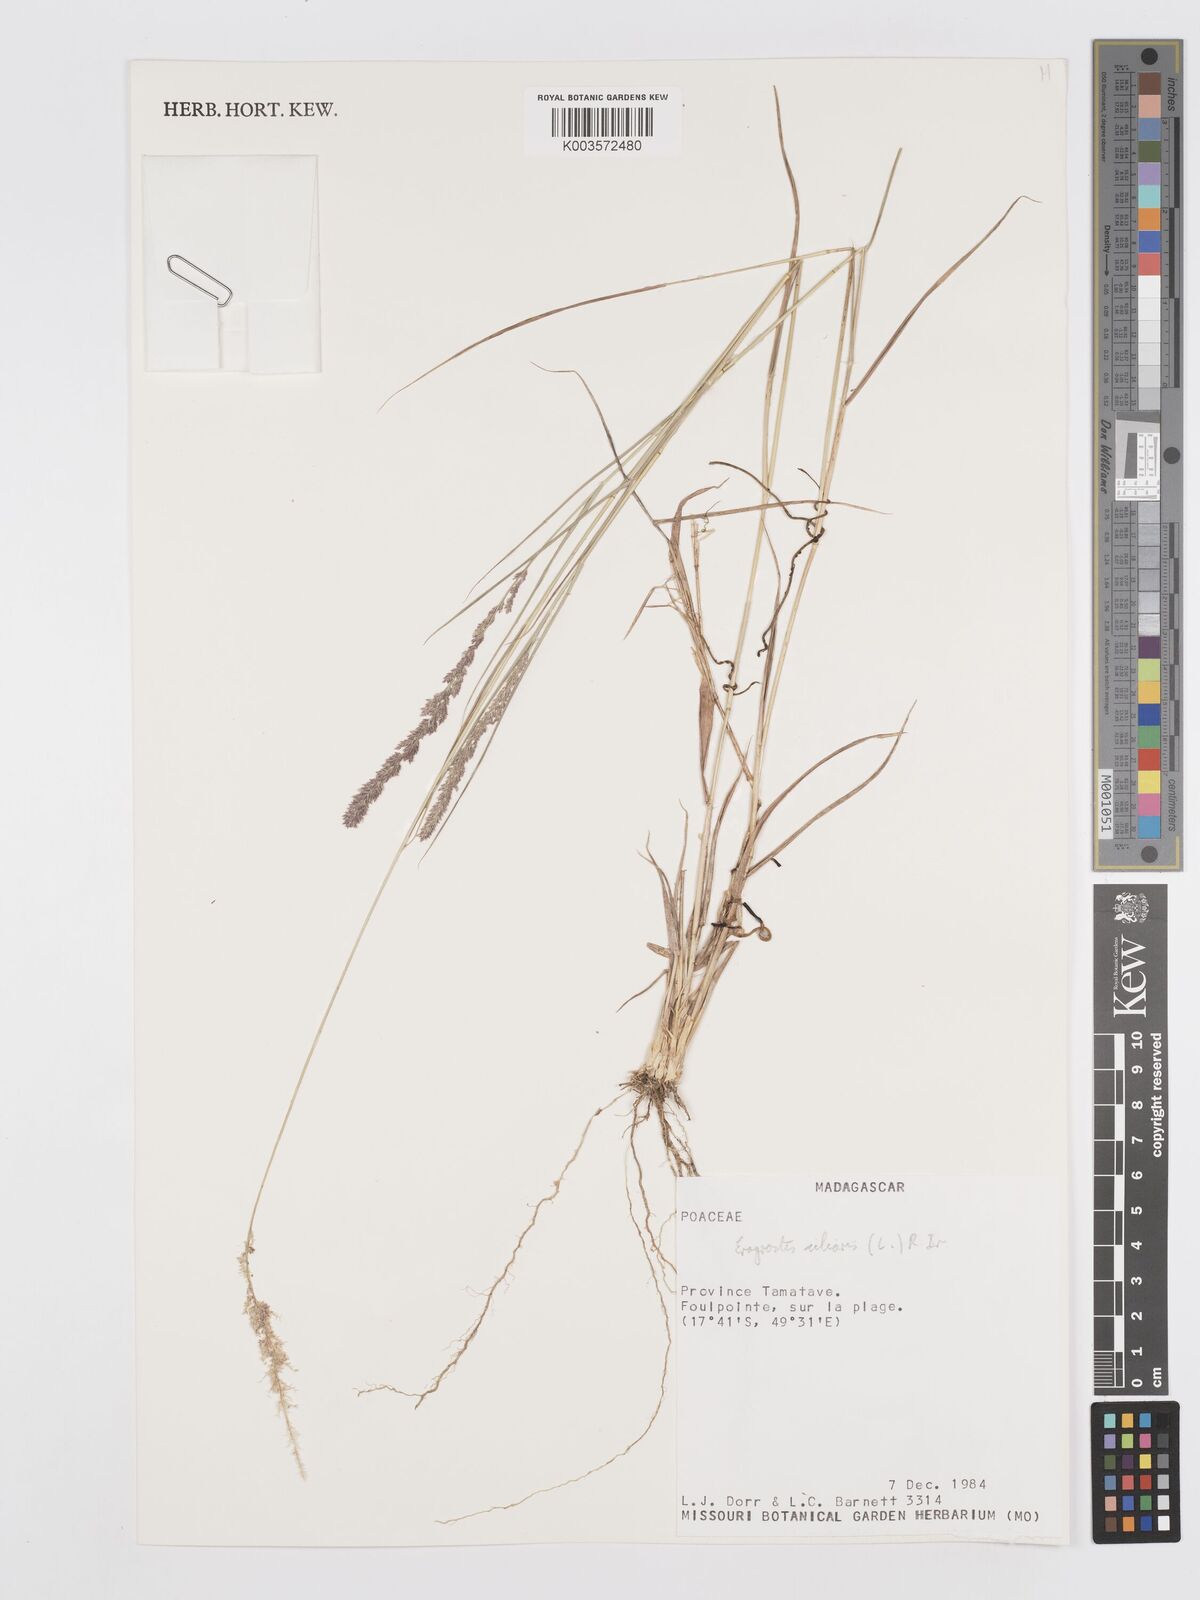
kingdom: Plantae
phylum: Tracheophyta
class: Liliopsida
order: Poales
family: Poaceae
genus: Eragrostis
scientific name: Eragrostis ciliaris
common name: Gophertail lovegrass
